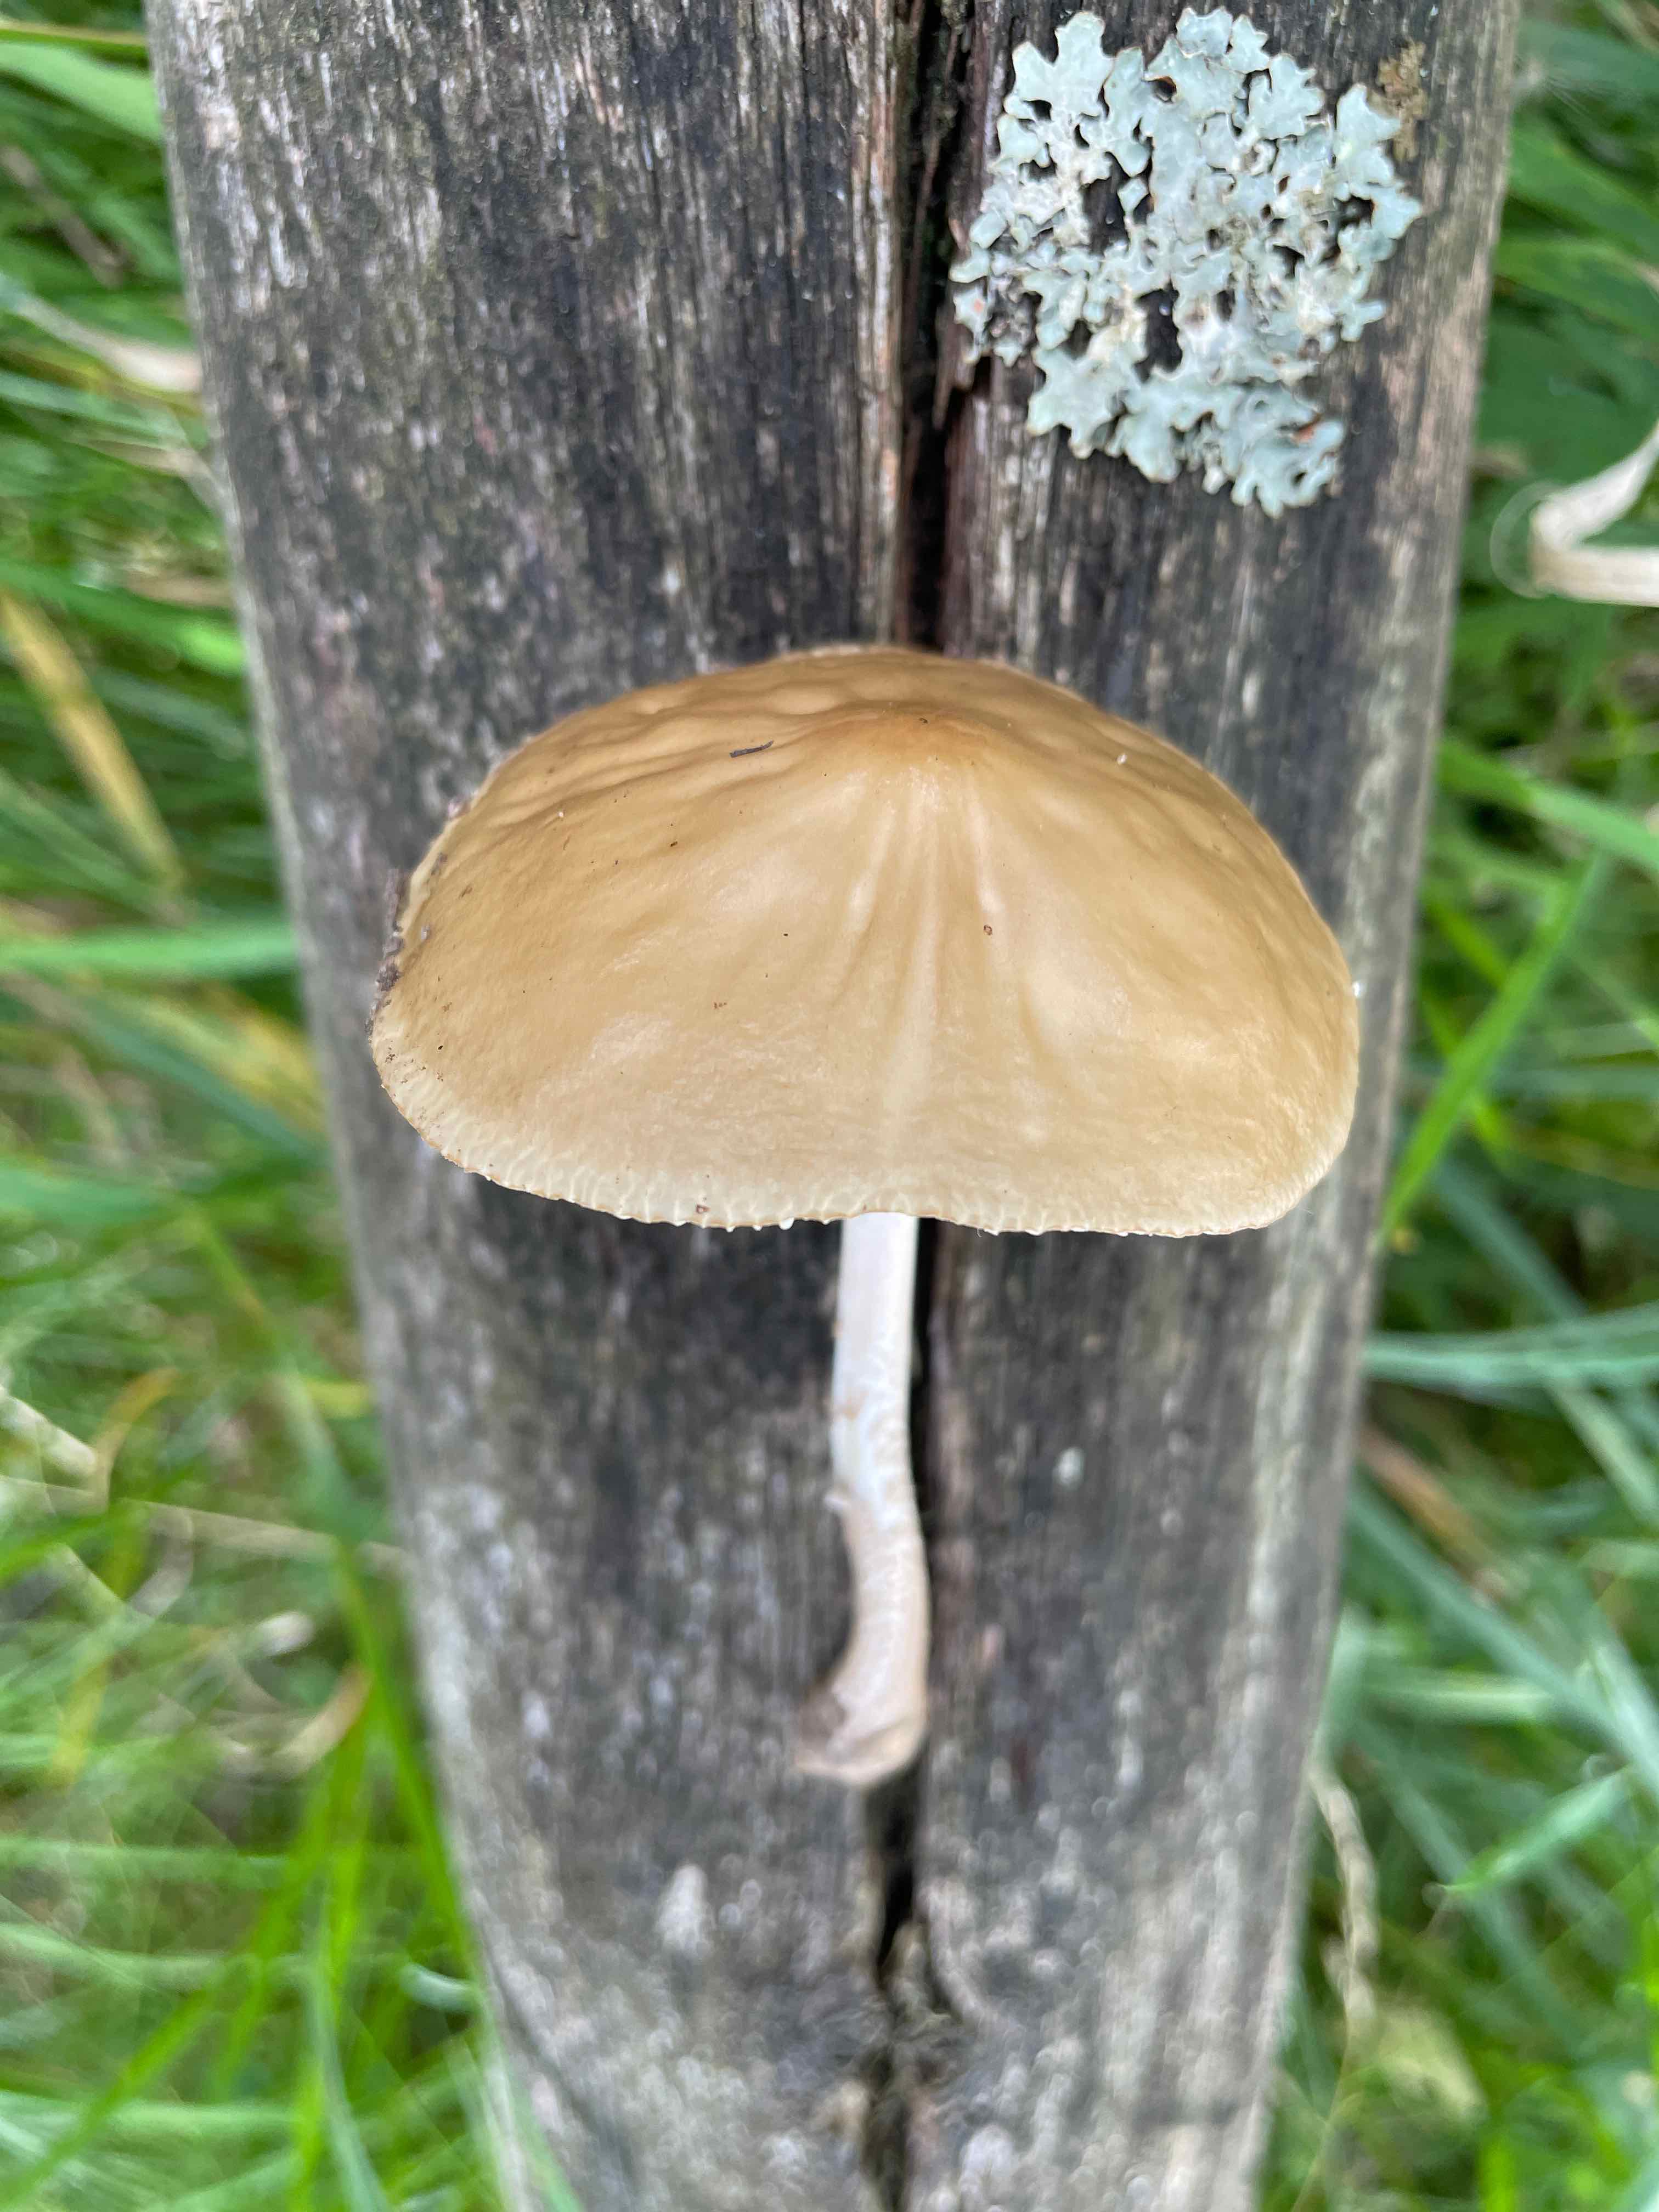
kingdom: Fungi
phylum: Basidiomycota
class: Agaricomycetes
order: Agaricales
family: Physalacriaceae
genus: Hymenopellis
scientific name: Hymenopellis radicata
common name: almindelig pælerodshat
